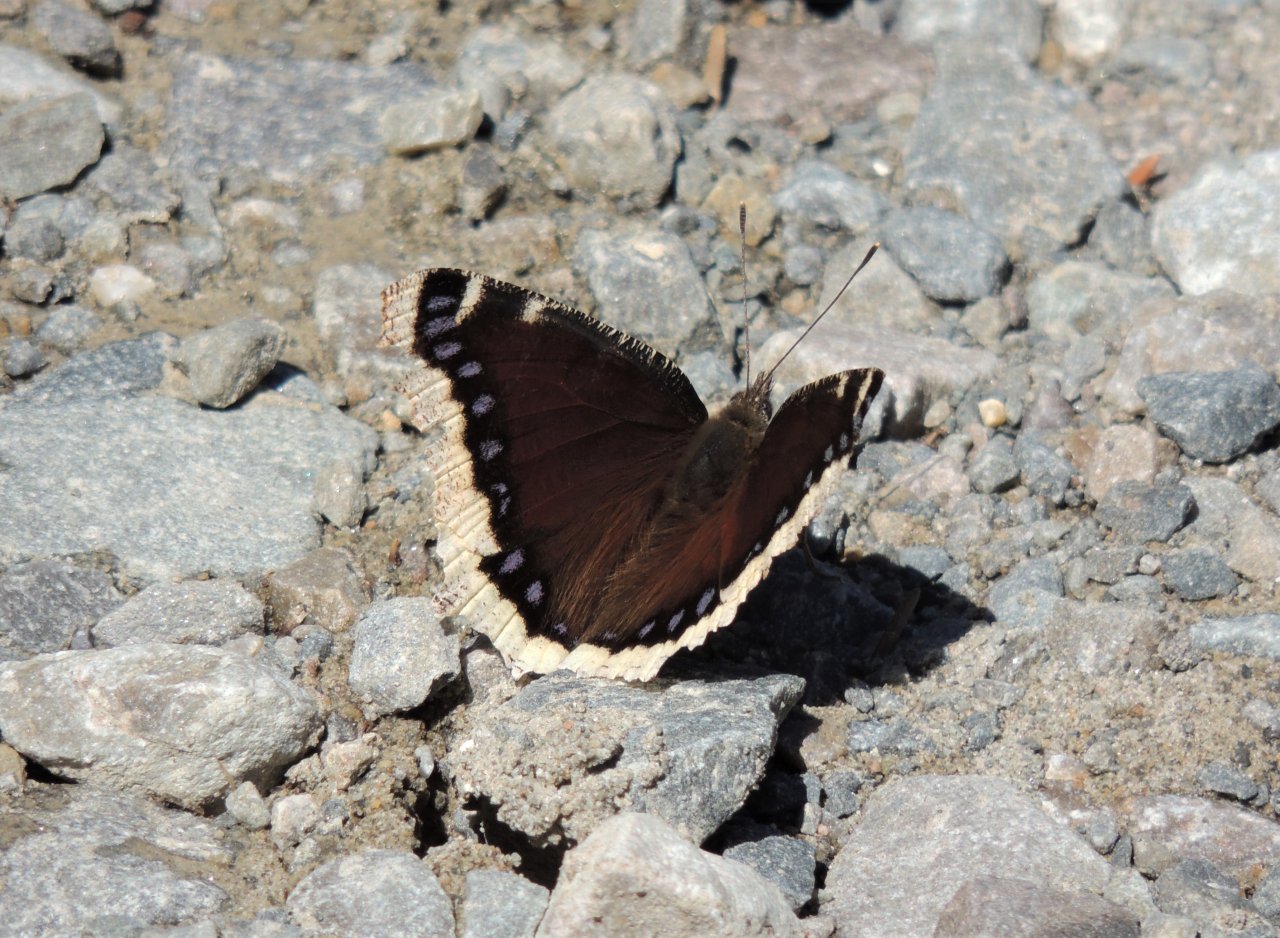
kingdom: Animalia
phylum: Arthropoda
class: Insecta
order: Lepidoptera
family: Nymphalidae
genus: Nymphalis
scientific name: Nymphalis antiopa
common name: Mourning Cloak
